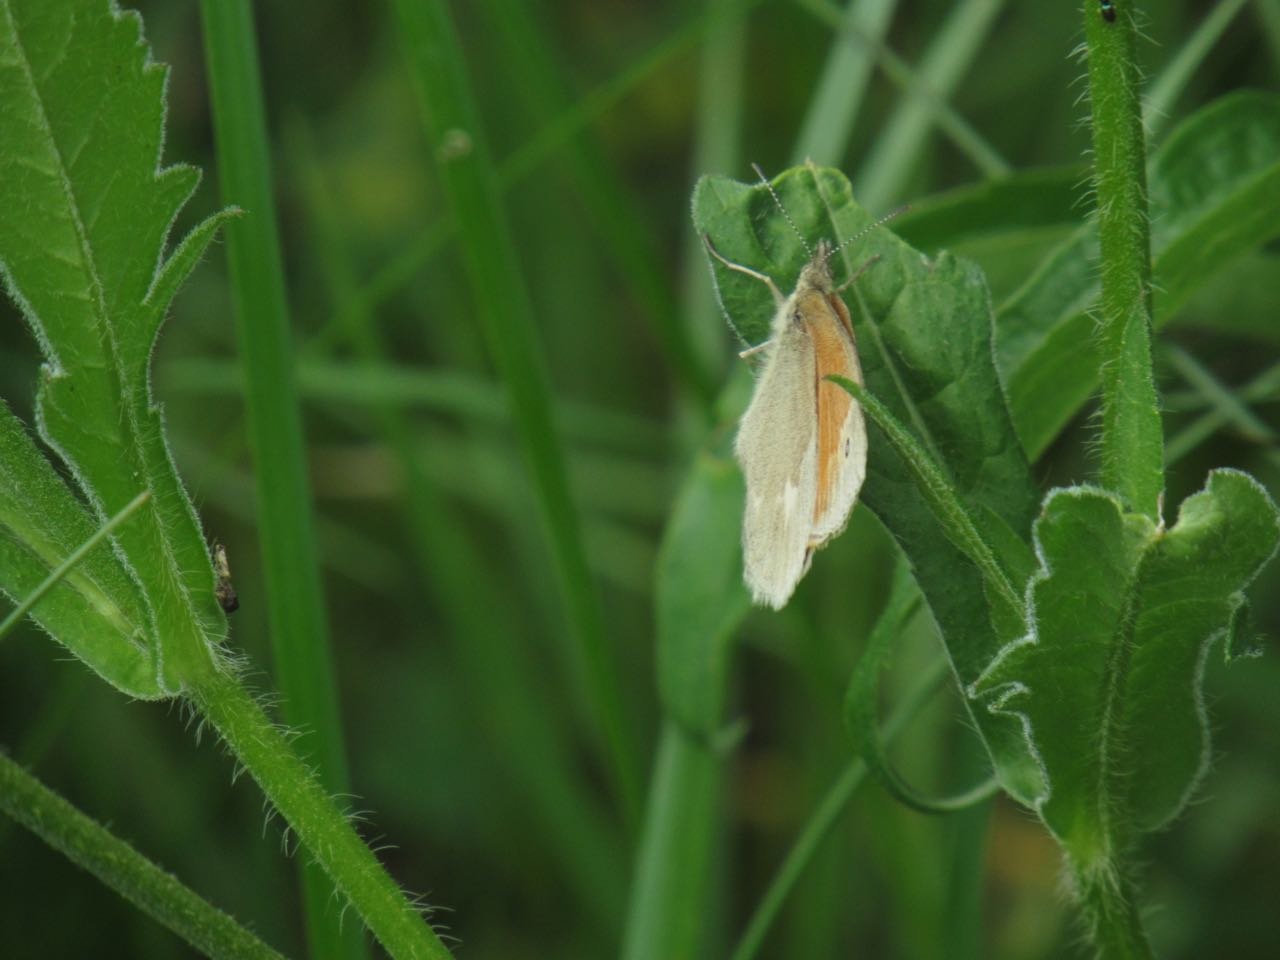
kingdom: Animalia
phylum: Arthropoda
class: Insecta
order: Lepidoptera
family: Nymphalidae
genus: Coenonympha
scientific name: Coenonympha tullia
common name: Large Heath
